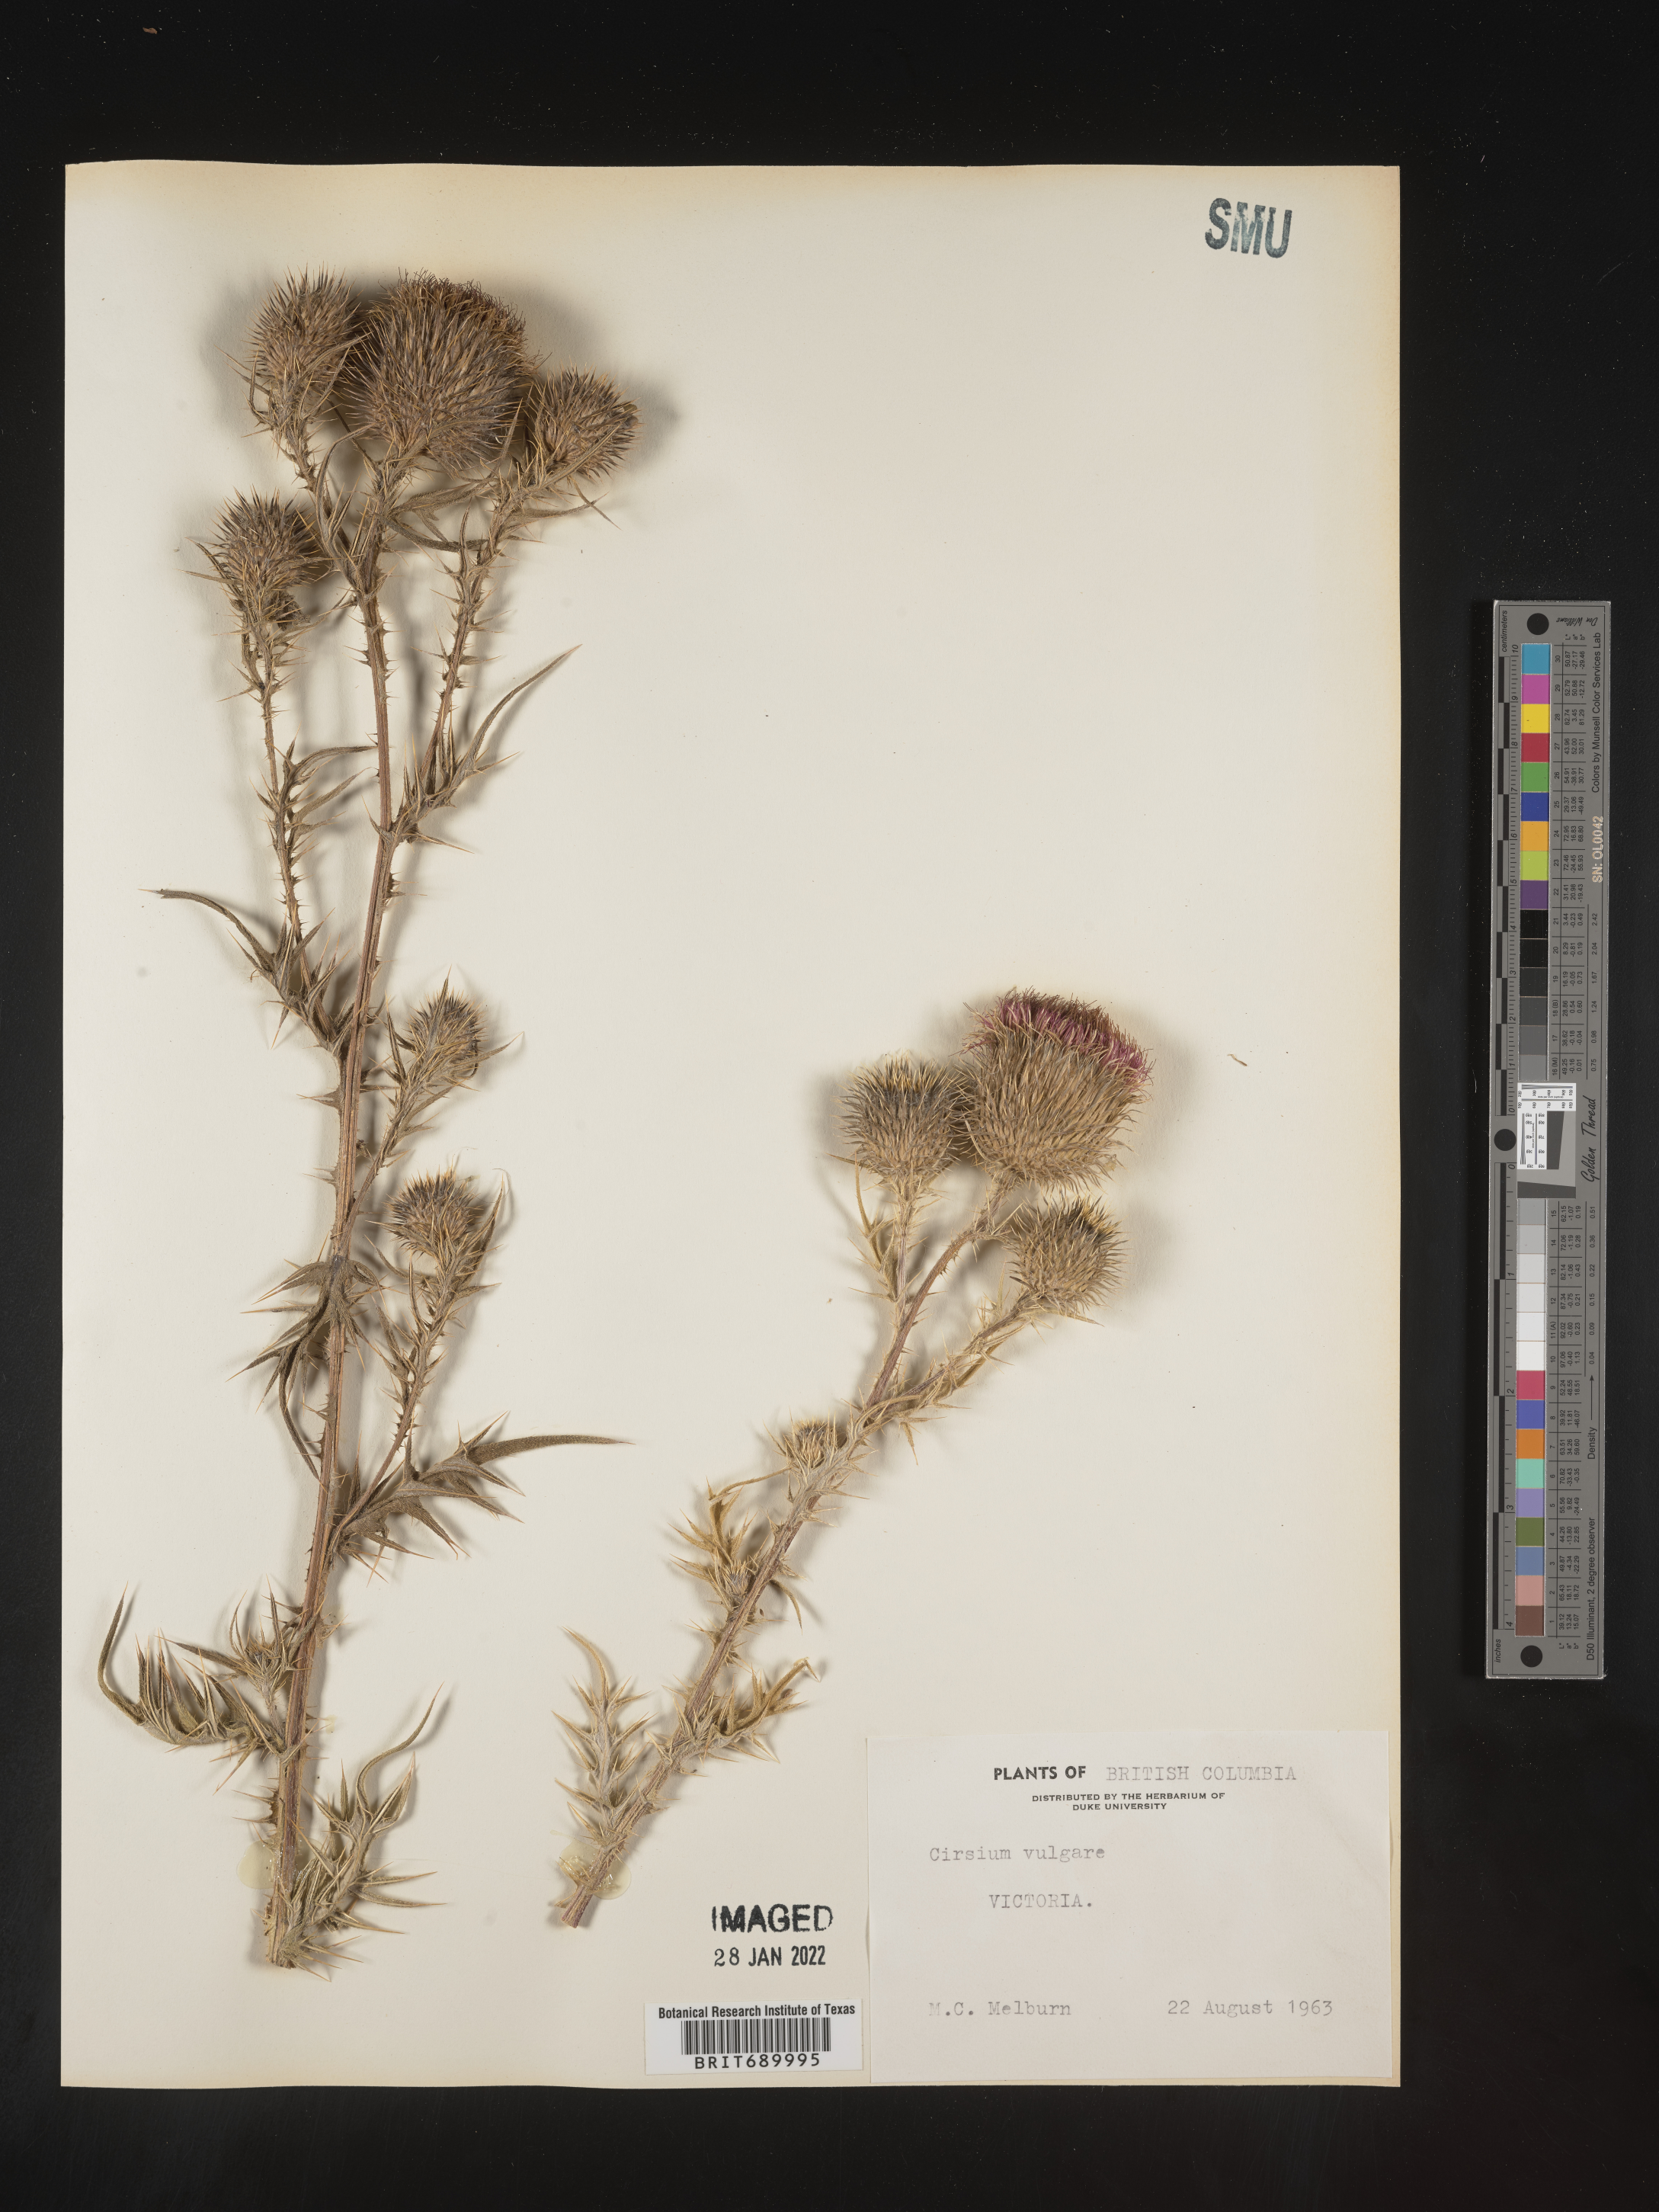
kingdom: Plantae
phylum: Tracheophyta
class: Magnoliopsida
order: Asterales
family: Asteraceae
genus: Cirsium
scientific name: Cirsium vulgare
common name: Bull thistle
